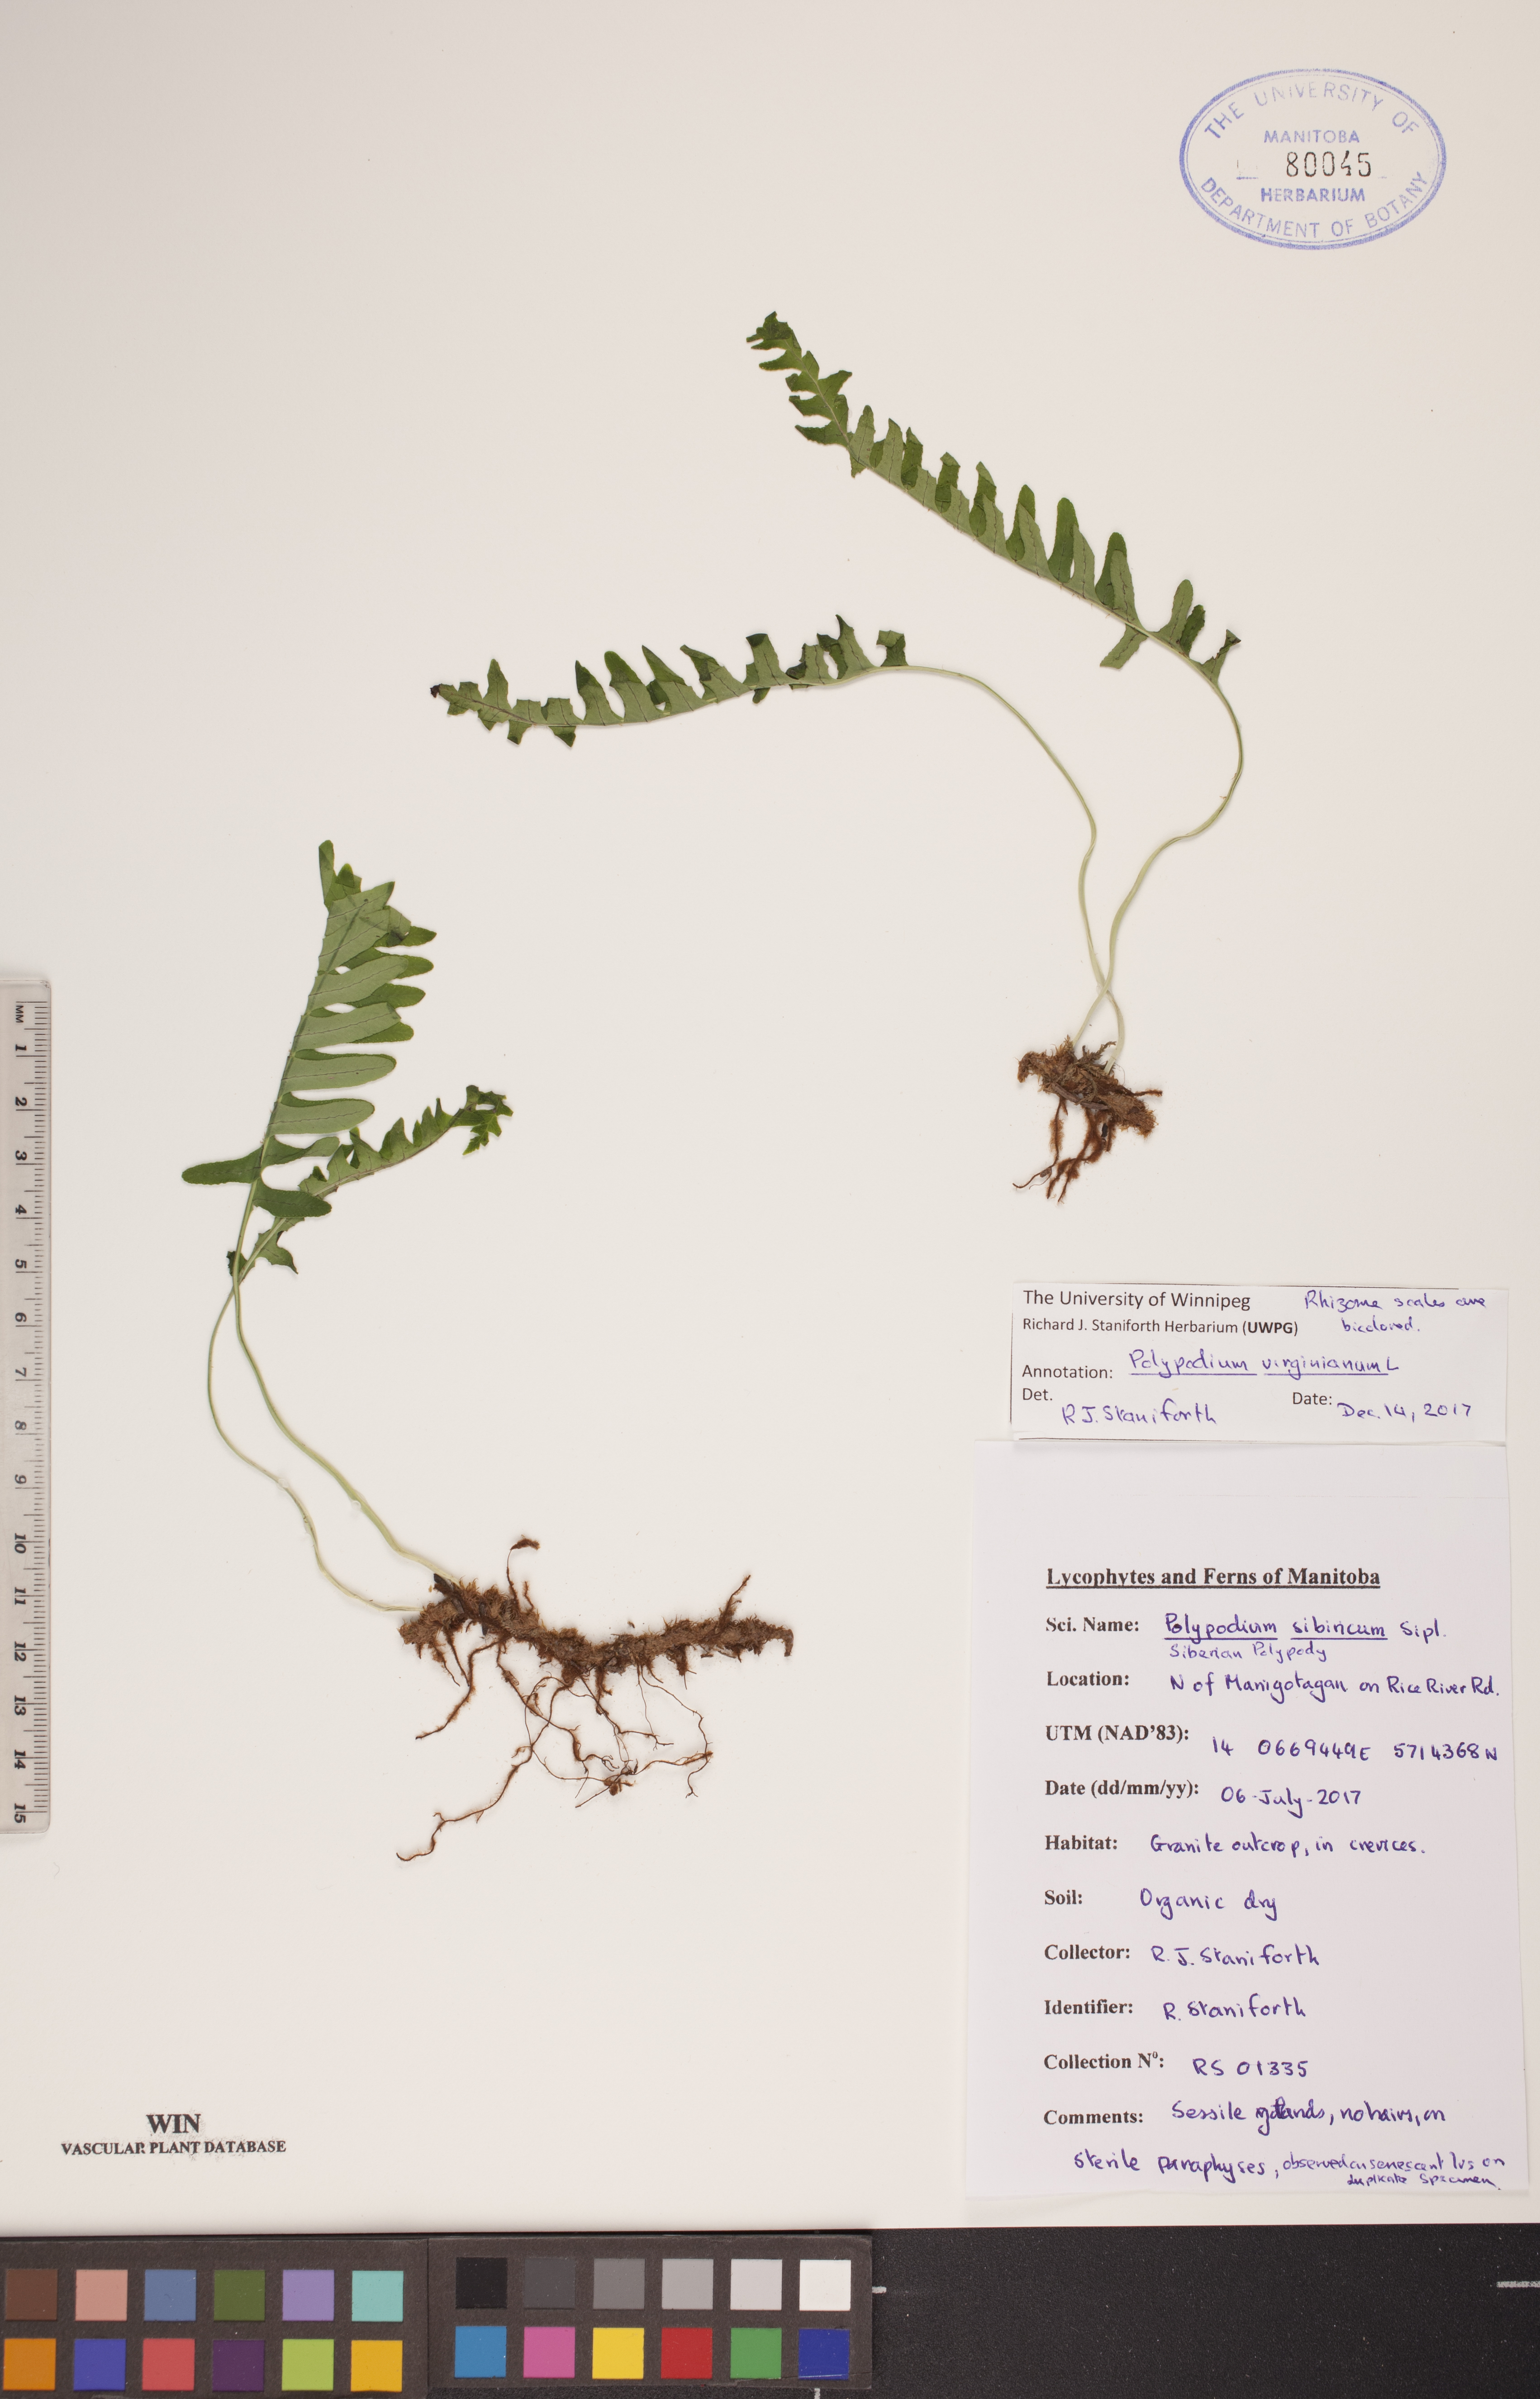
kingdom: Plantae
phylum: Tracheophyta
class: Polypodiopsida
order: Polypodiales
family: Polypodiaceae
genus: Polypodium
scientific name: Polypodium virginianum
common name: American wall fern
